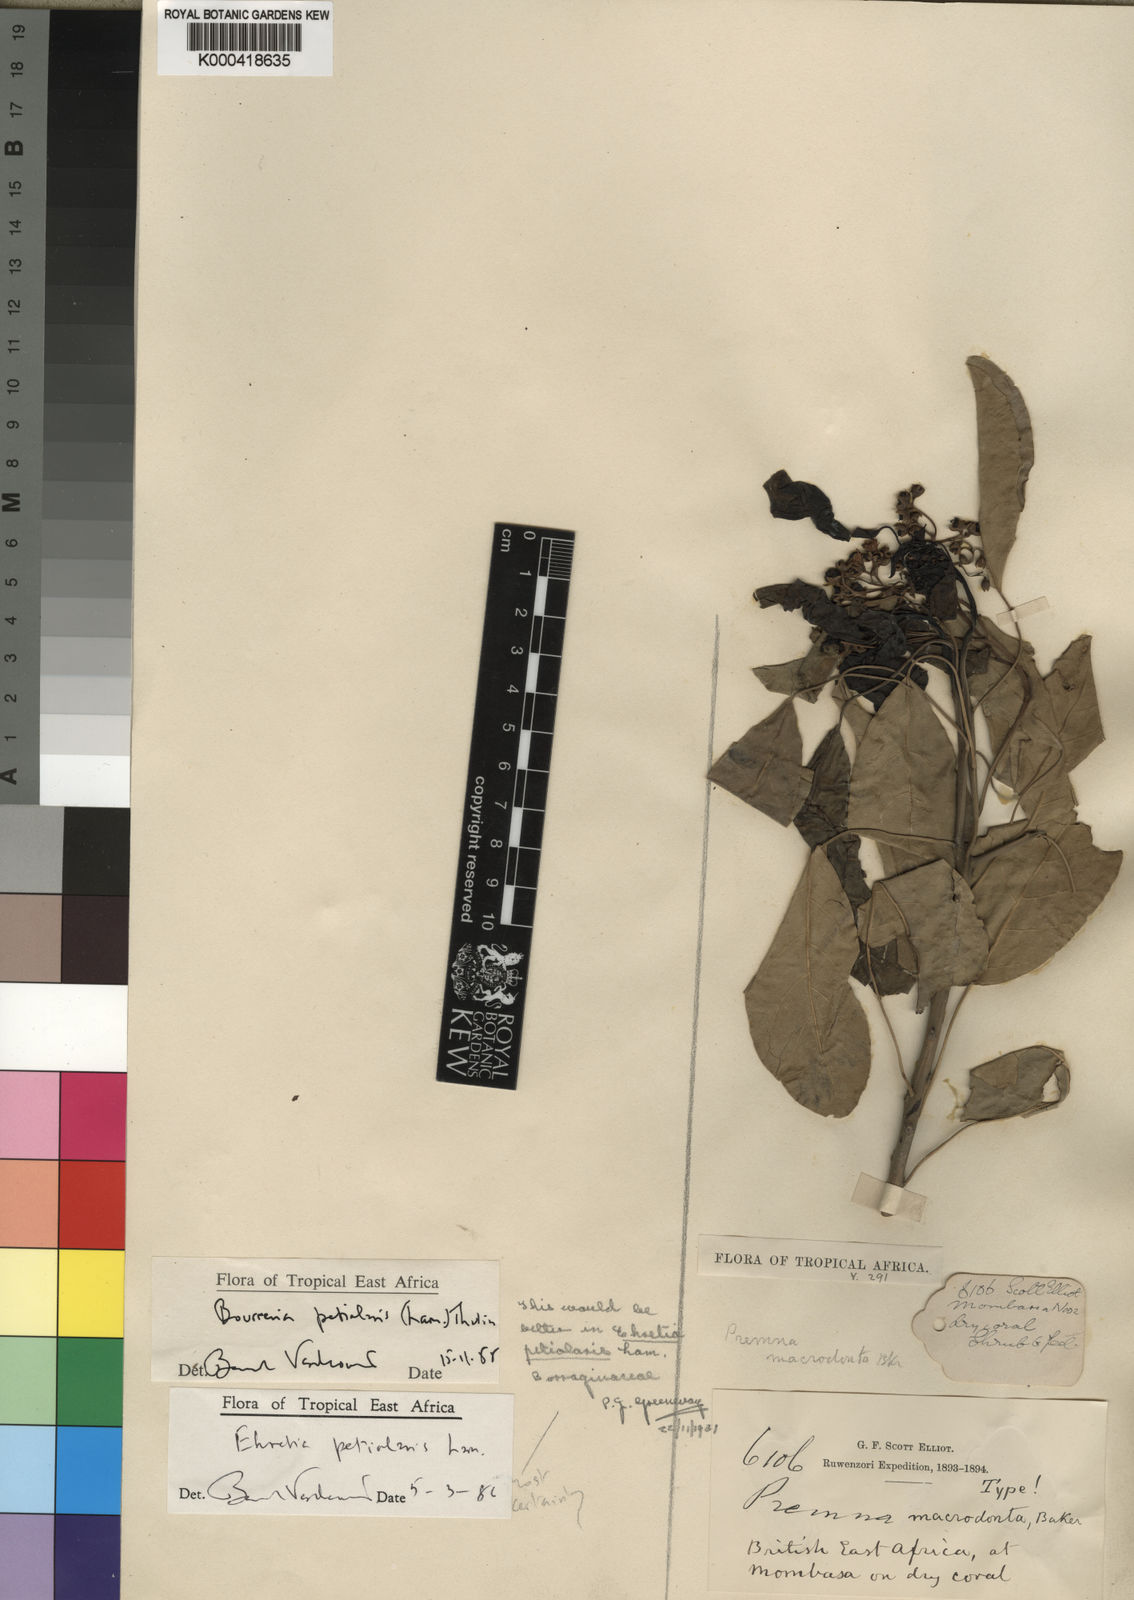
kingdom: Plantae
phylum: Tracheophyta
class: Magnoliopsida
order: Boraginales
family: Ehretiaceae
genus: Bourreria
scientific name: Bourreria petiolaris
